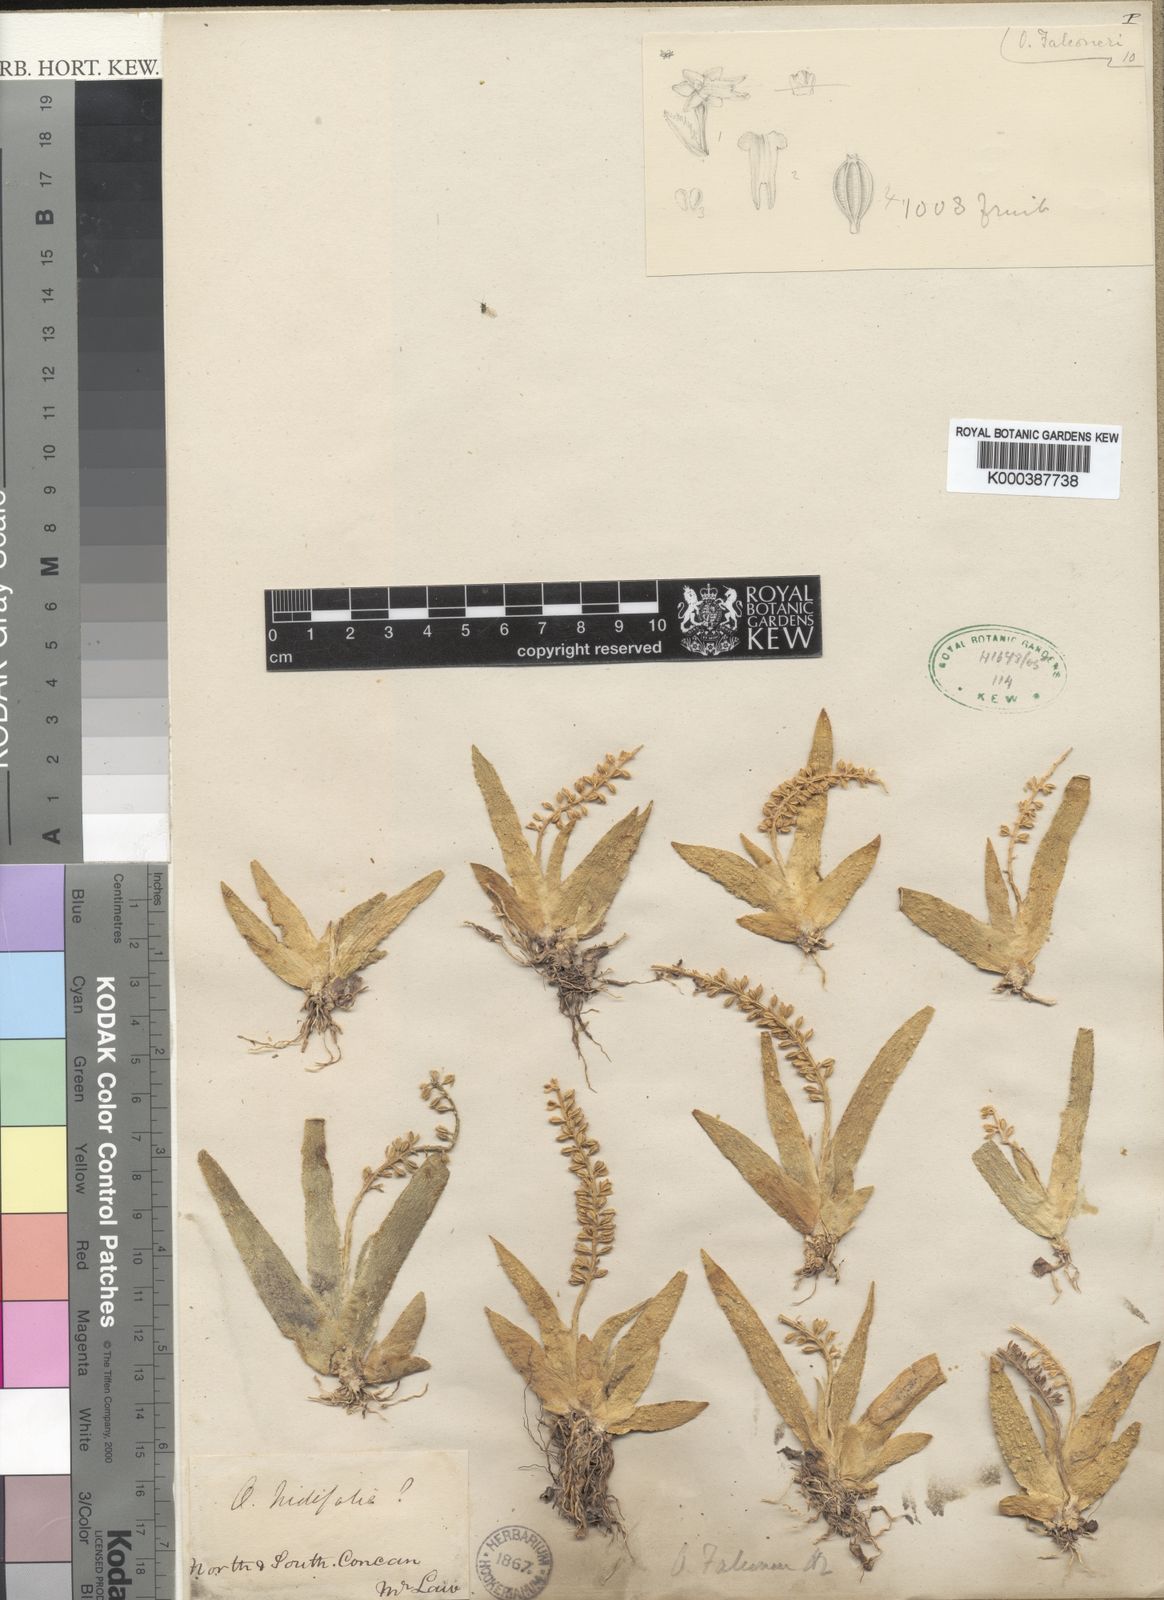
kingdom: Plantae
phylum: Tracheophyta
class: Liliopsida
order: Asparagales
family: Orchidaceae
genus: Oberonia
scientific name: Oberonia falconeri
